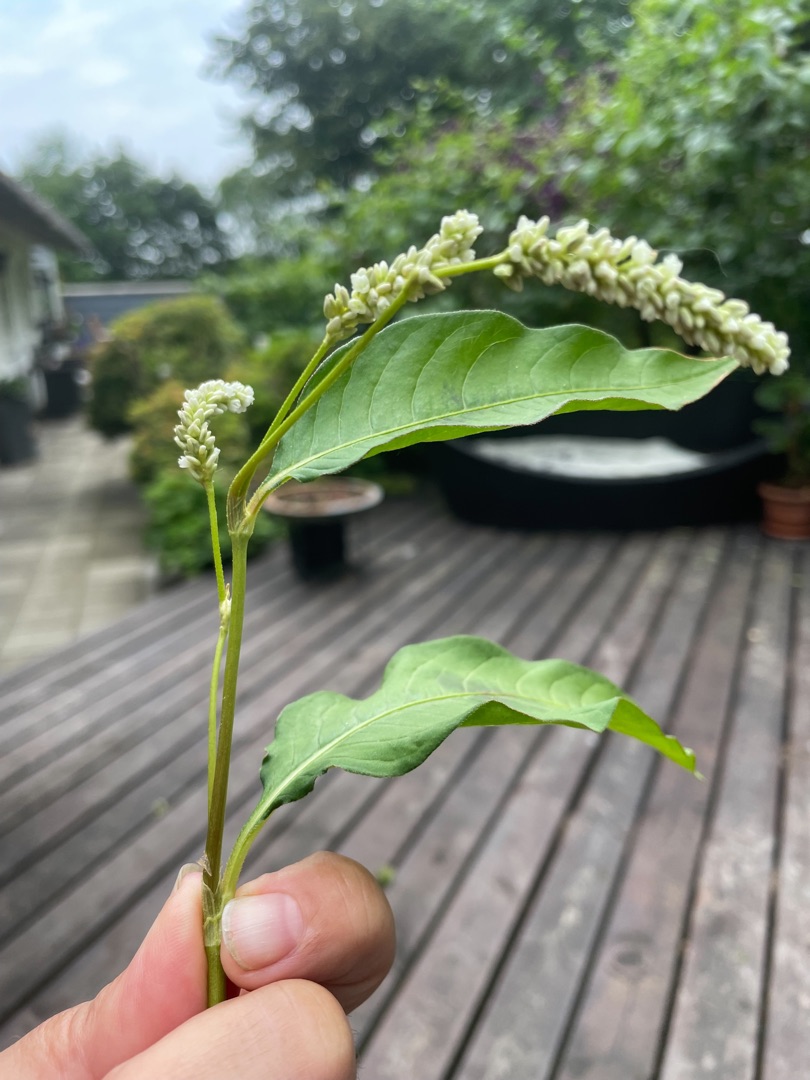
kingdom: Plantae
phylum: Tracheophyta
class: Magnoliopsida
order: Caryophyllales
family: Polygonaceae
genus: Persicaria
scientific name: Persicaria lapathifolia
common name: Knudet pileurt
